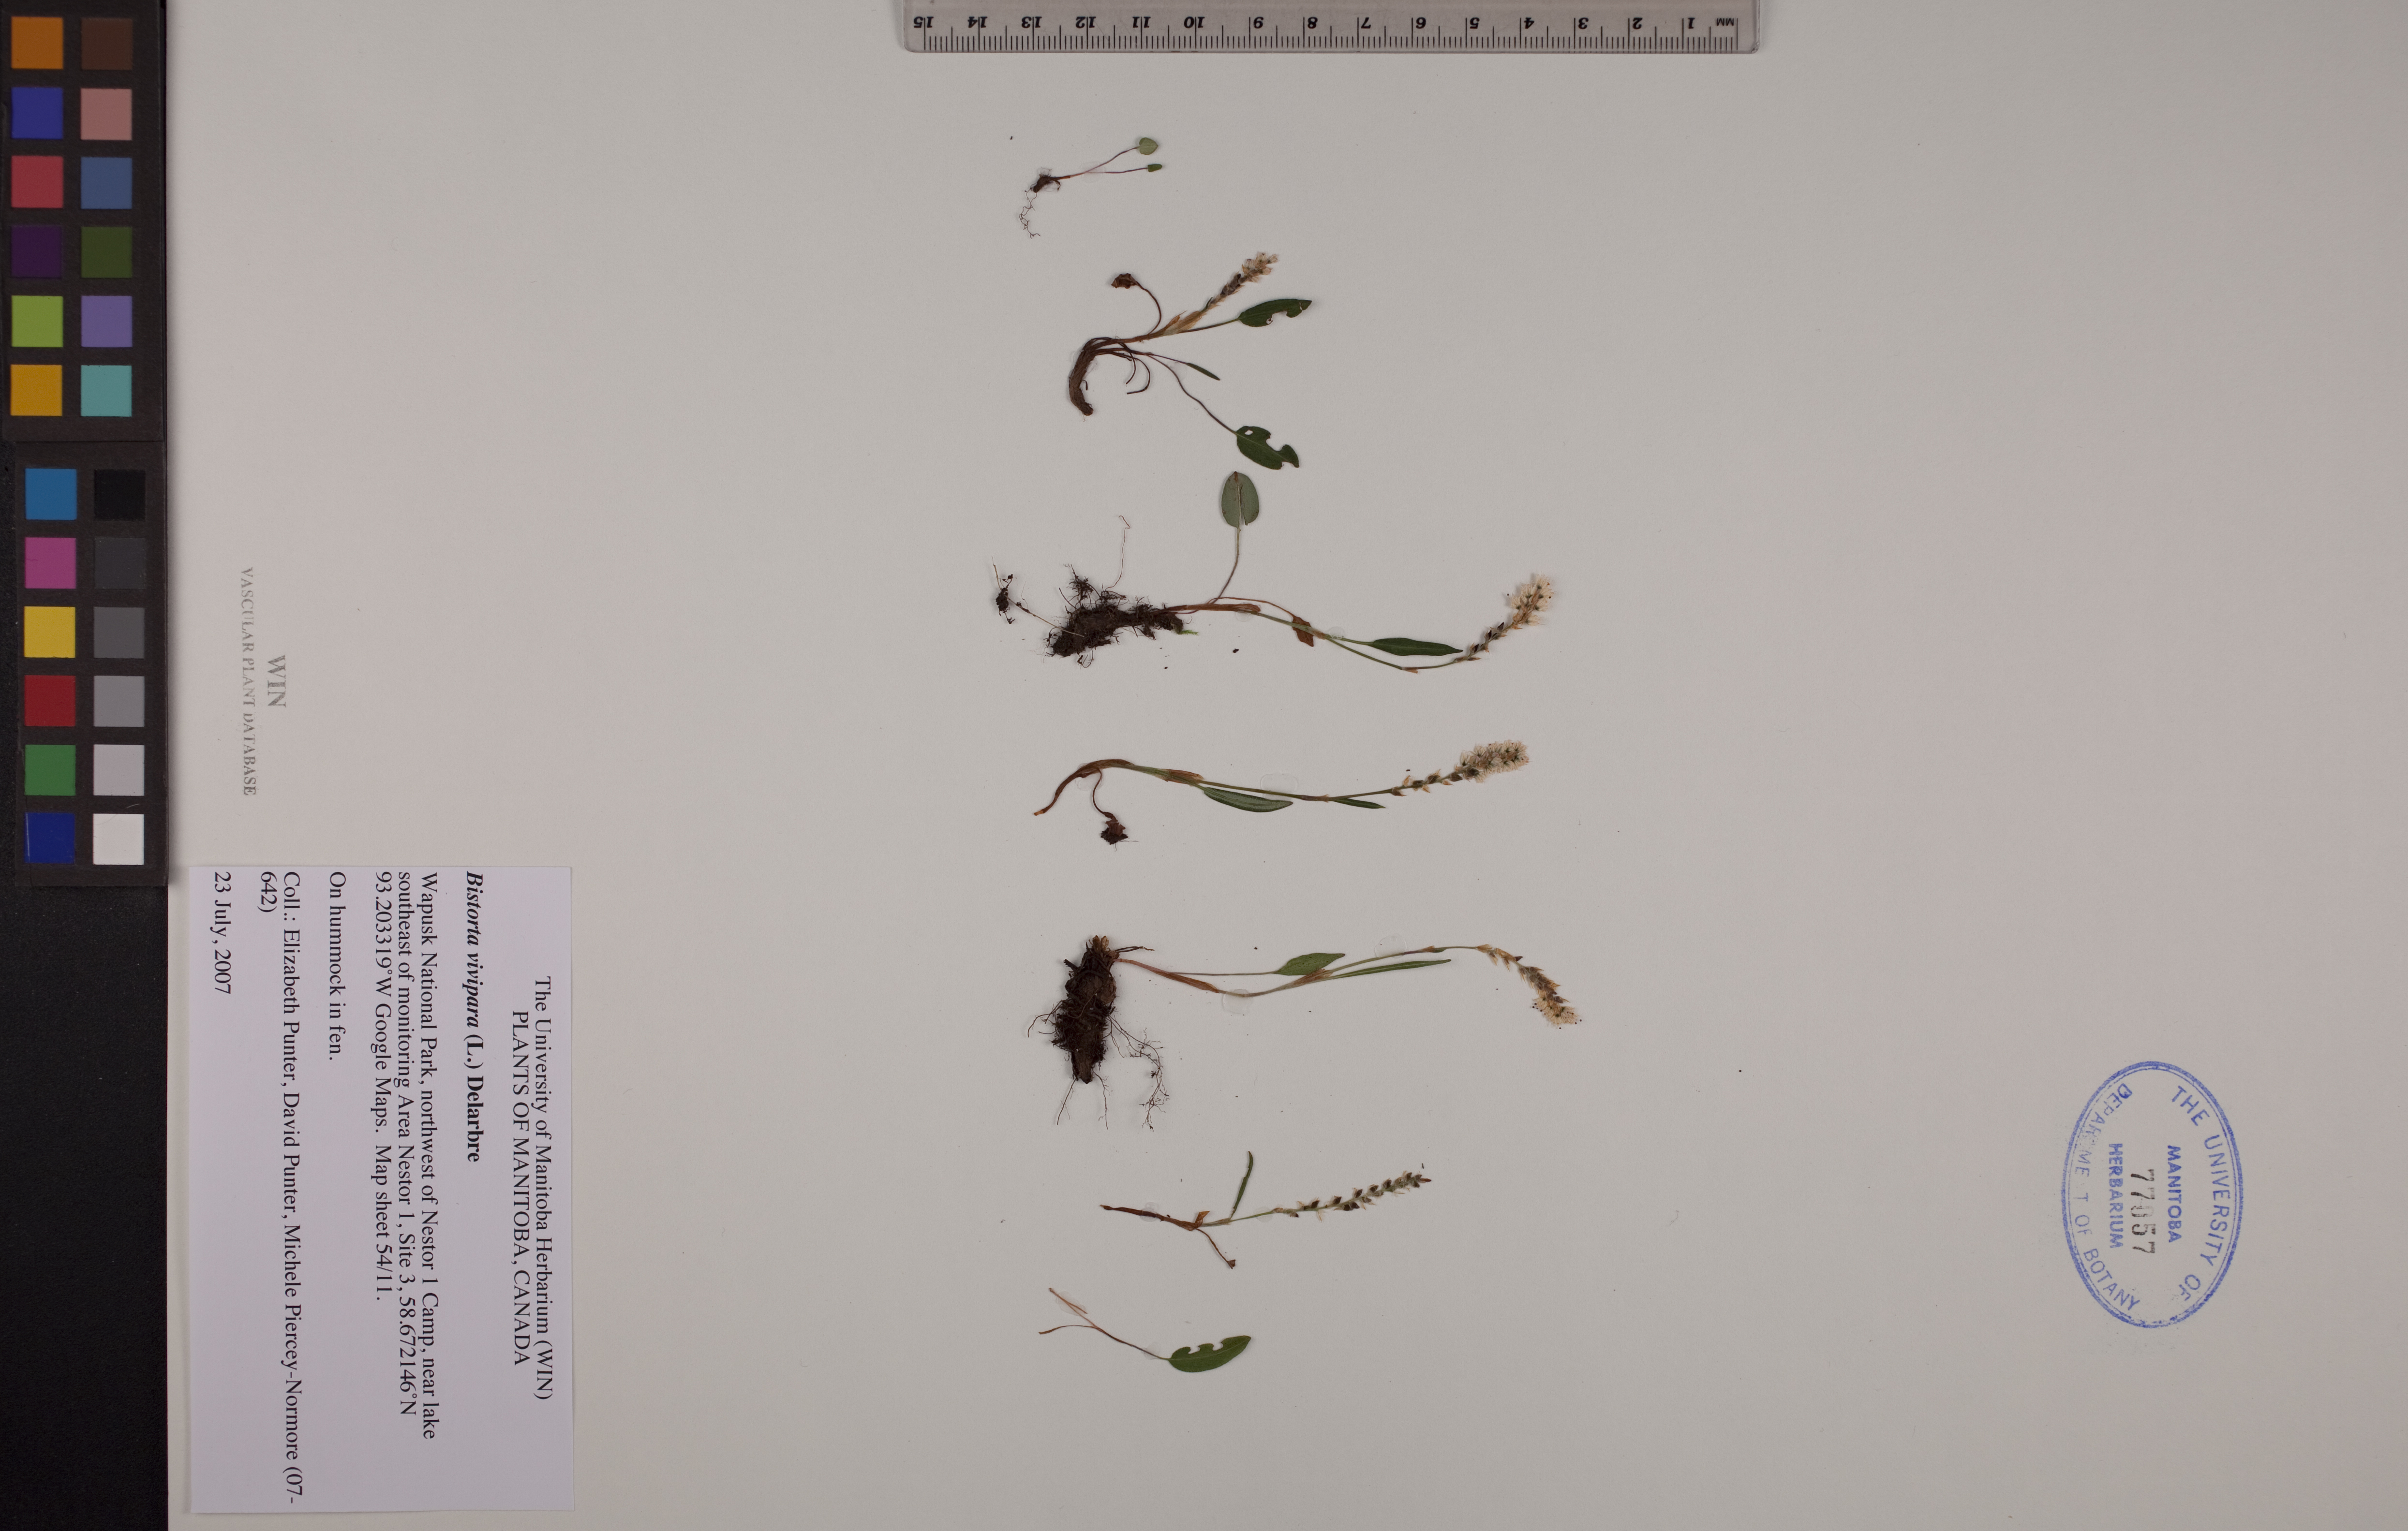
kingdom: Plantae
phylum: Tracheophyta
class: Magnoliopsida
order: Caryophyllales
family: Polygonaceae
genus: Bistorta
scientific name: Bistorta vivipara
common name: Alpine bistort
